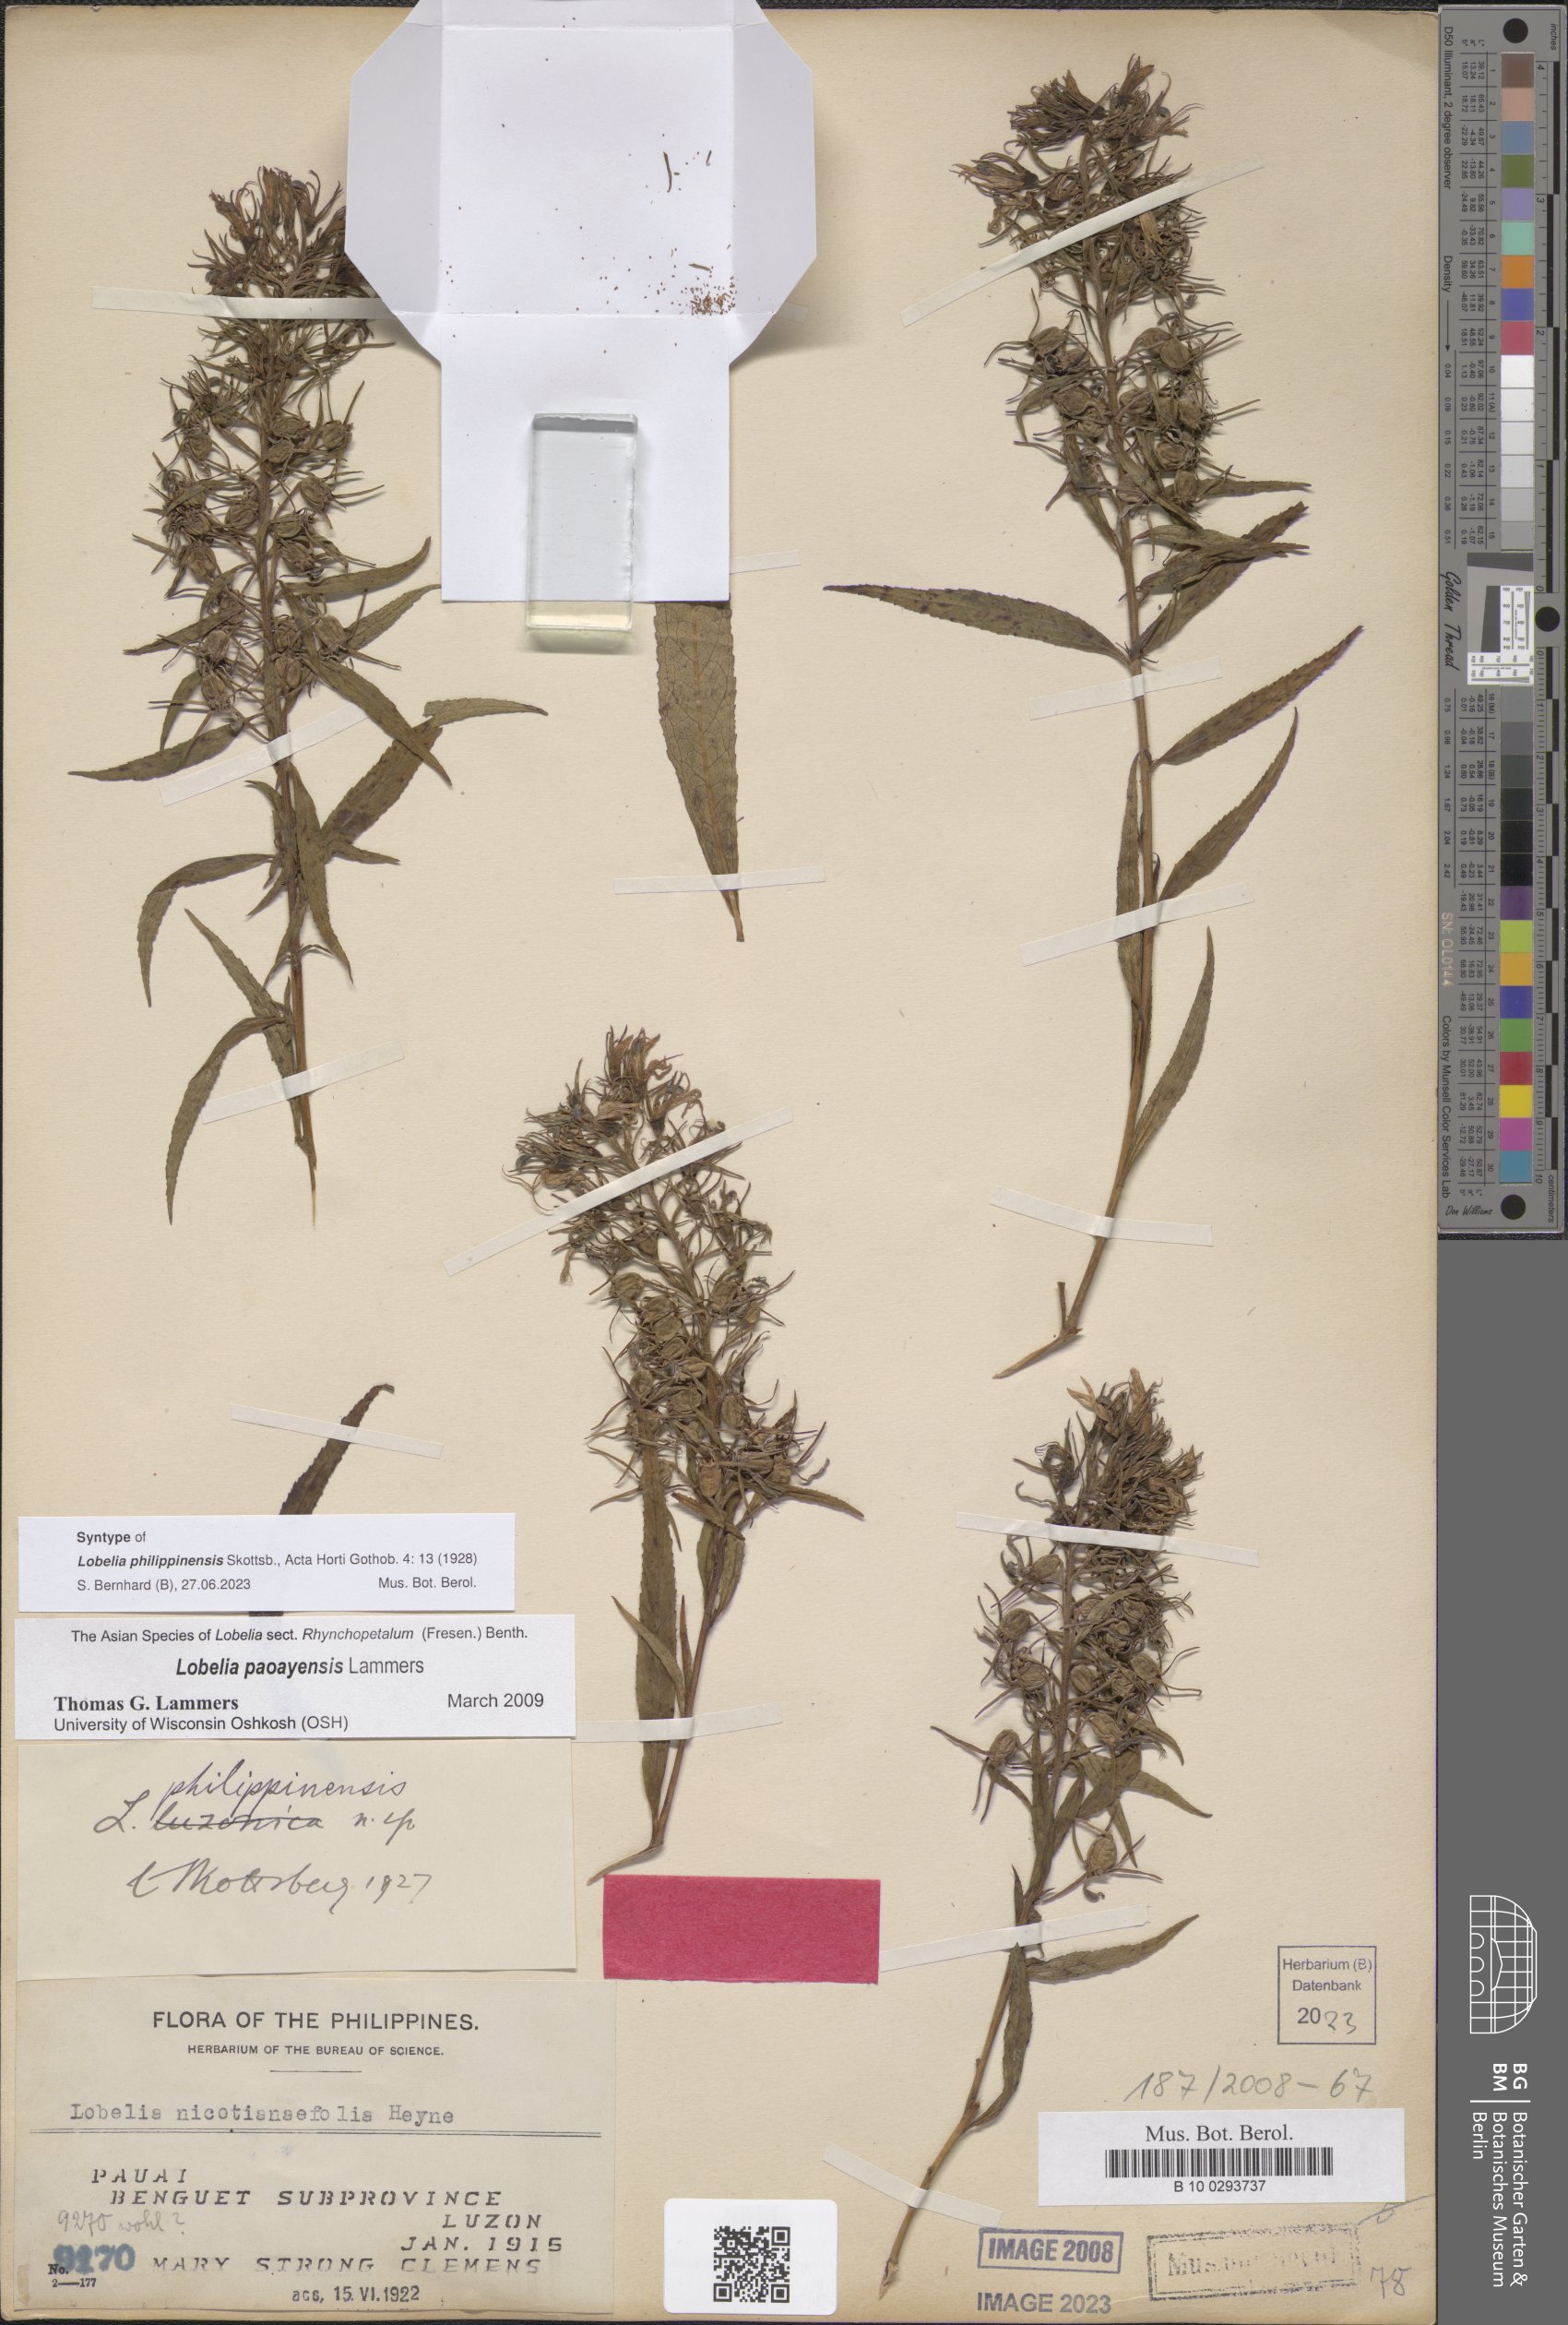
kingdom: Plantae
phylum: Tracheophyta
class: Magnoliopsida
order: Asterales
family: Campanulaceae
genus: Lobelia
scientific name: Lobelia philippinensis
